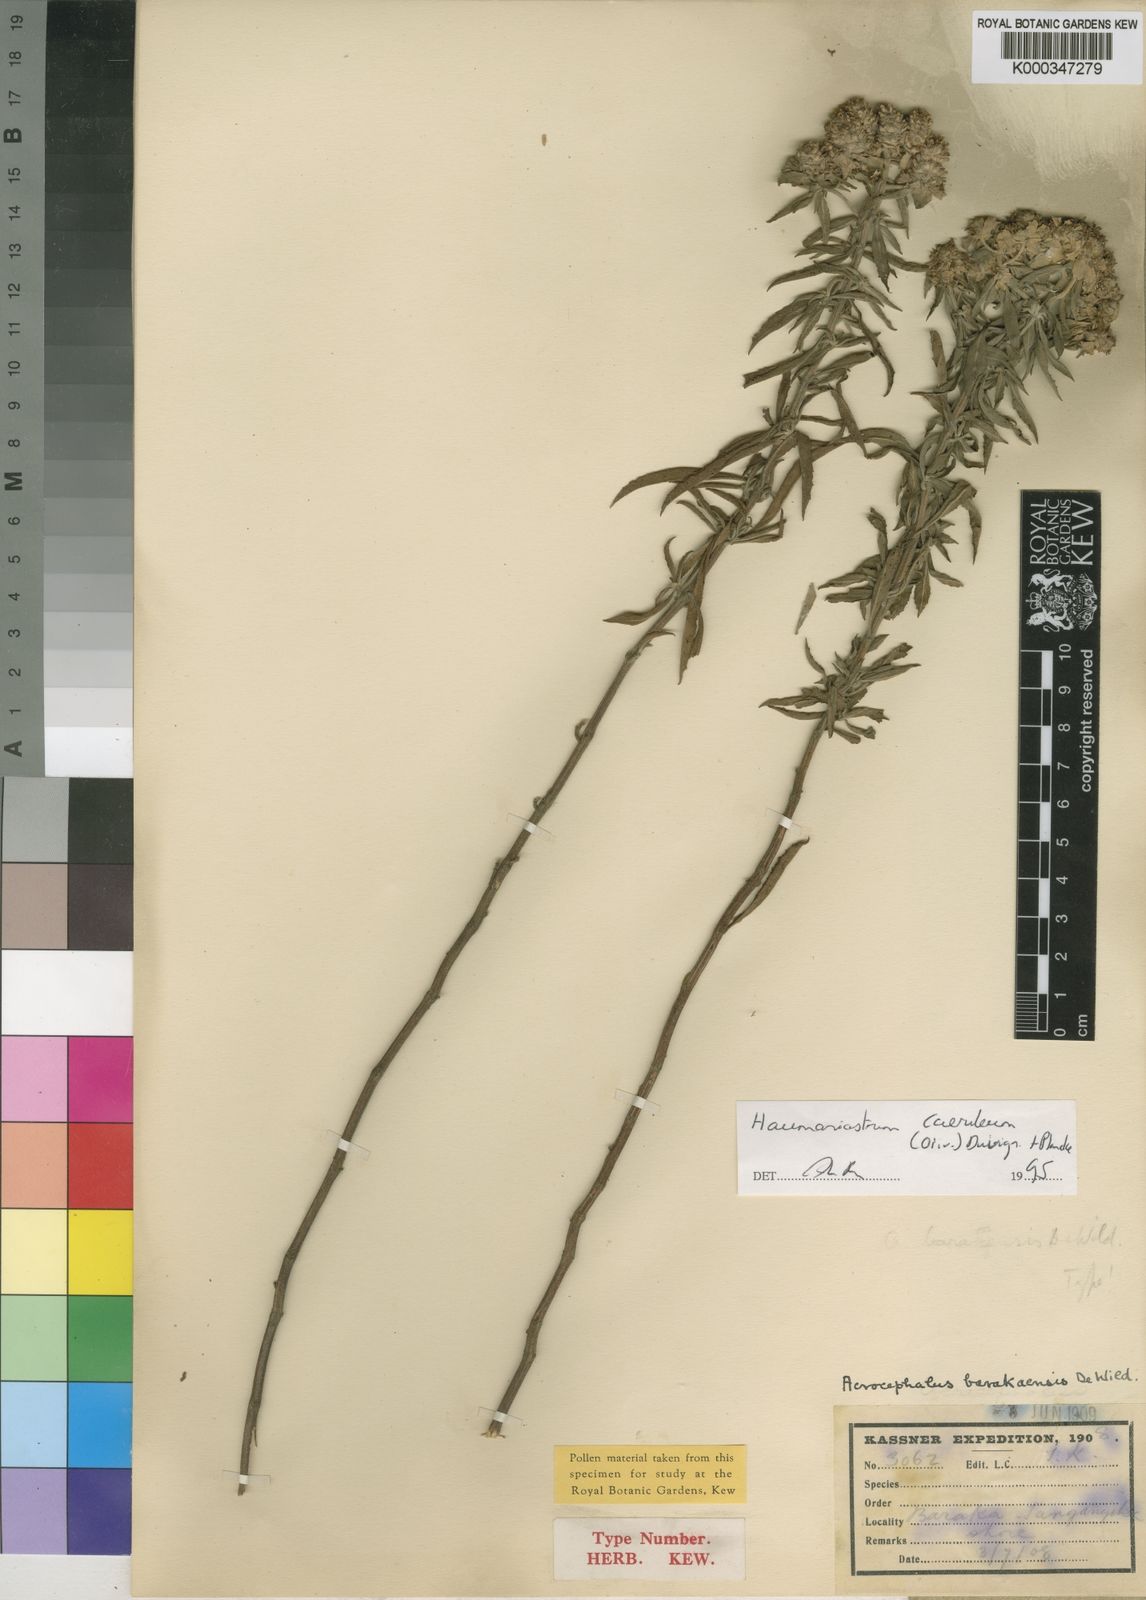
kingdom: Plantae
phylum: Tracheophyta
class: Magnoliopsida
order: Lamiales
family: Lamiaceae
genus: Haumaniastrum
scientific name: Haumaniastrum caeruleum
